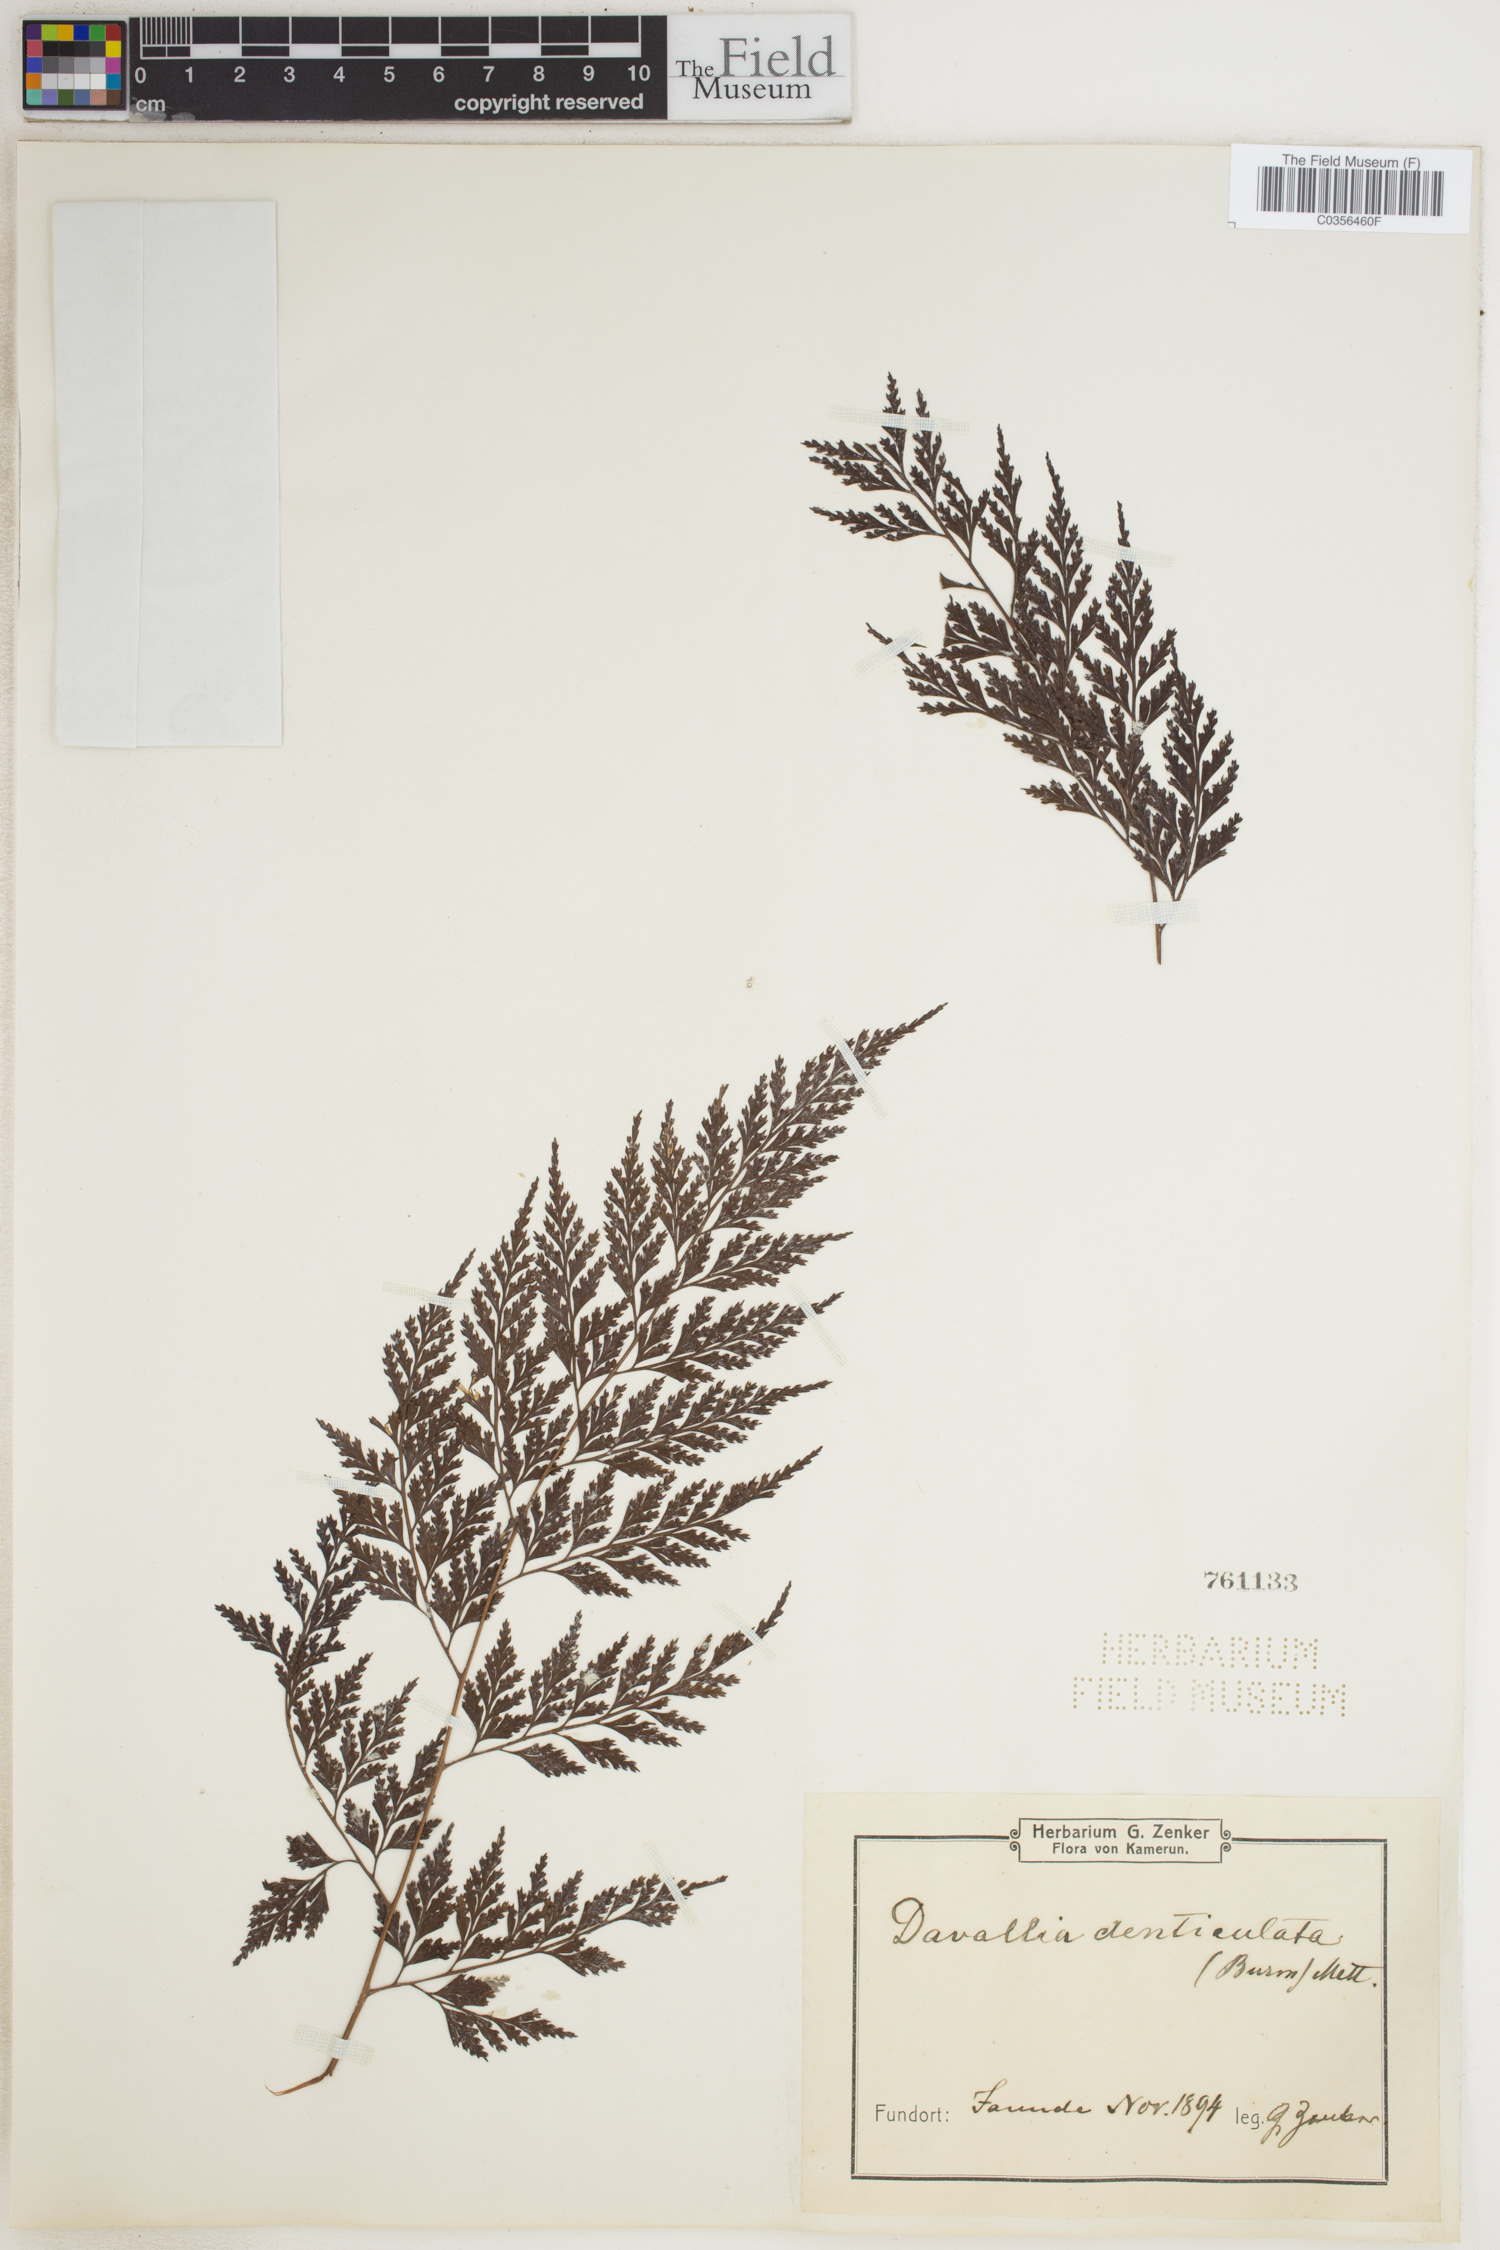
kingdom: Plantae
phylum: Tracheophyta
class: Polypodiopsida
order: Polypodiales
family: Davalliaceae
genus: Davallia
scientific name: Davallia denticulata
